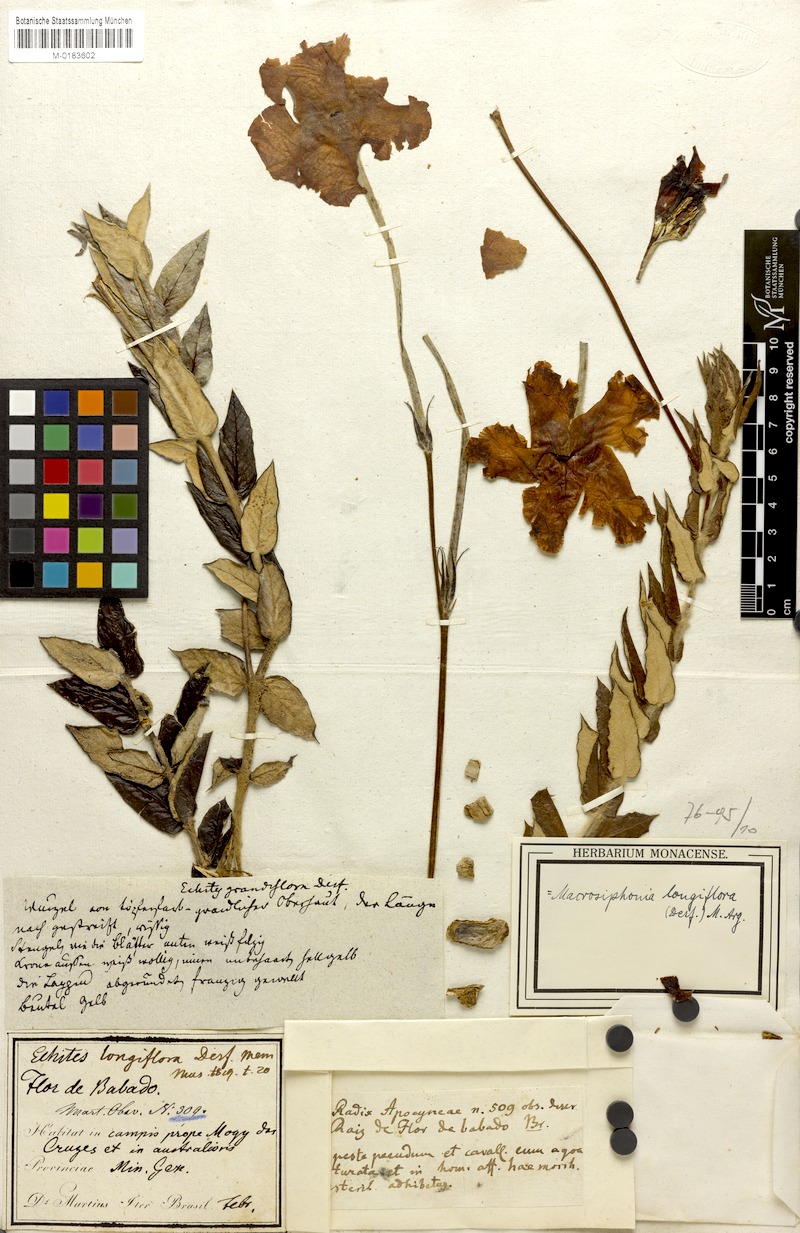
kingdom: Plantae
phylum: Tracheophyta
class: Magnoliopsida
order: Gentianales
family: Apocynaceae
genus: Mandevilla
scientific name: Mandevilla longiflora
